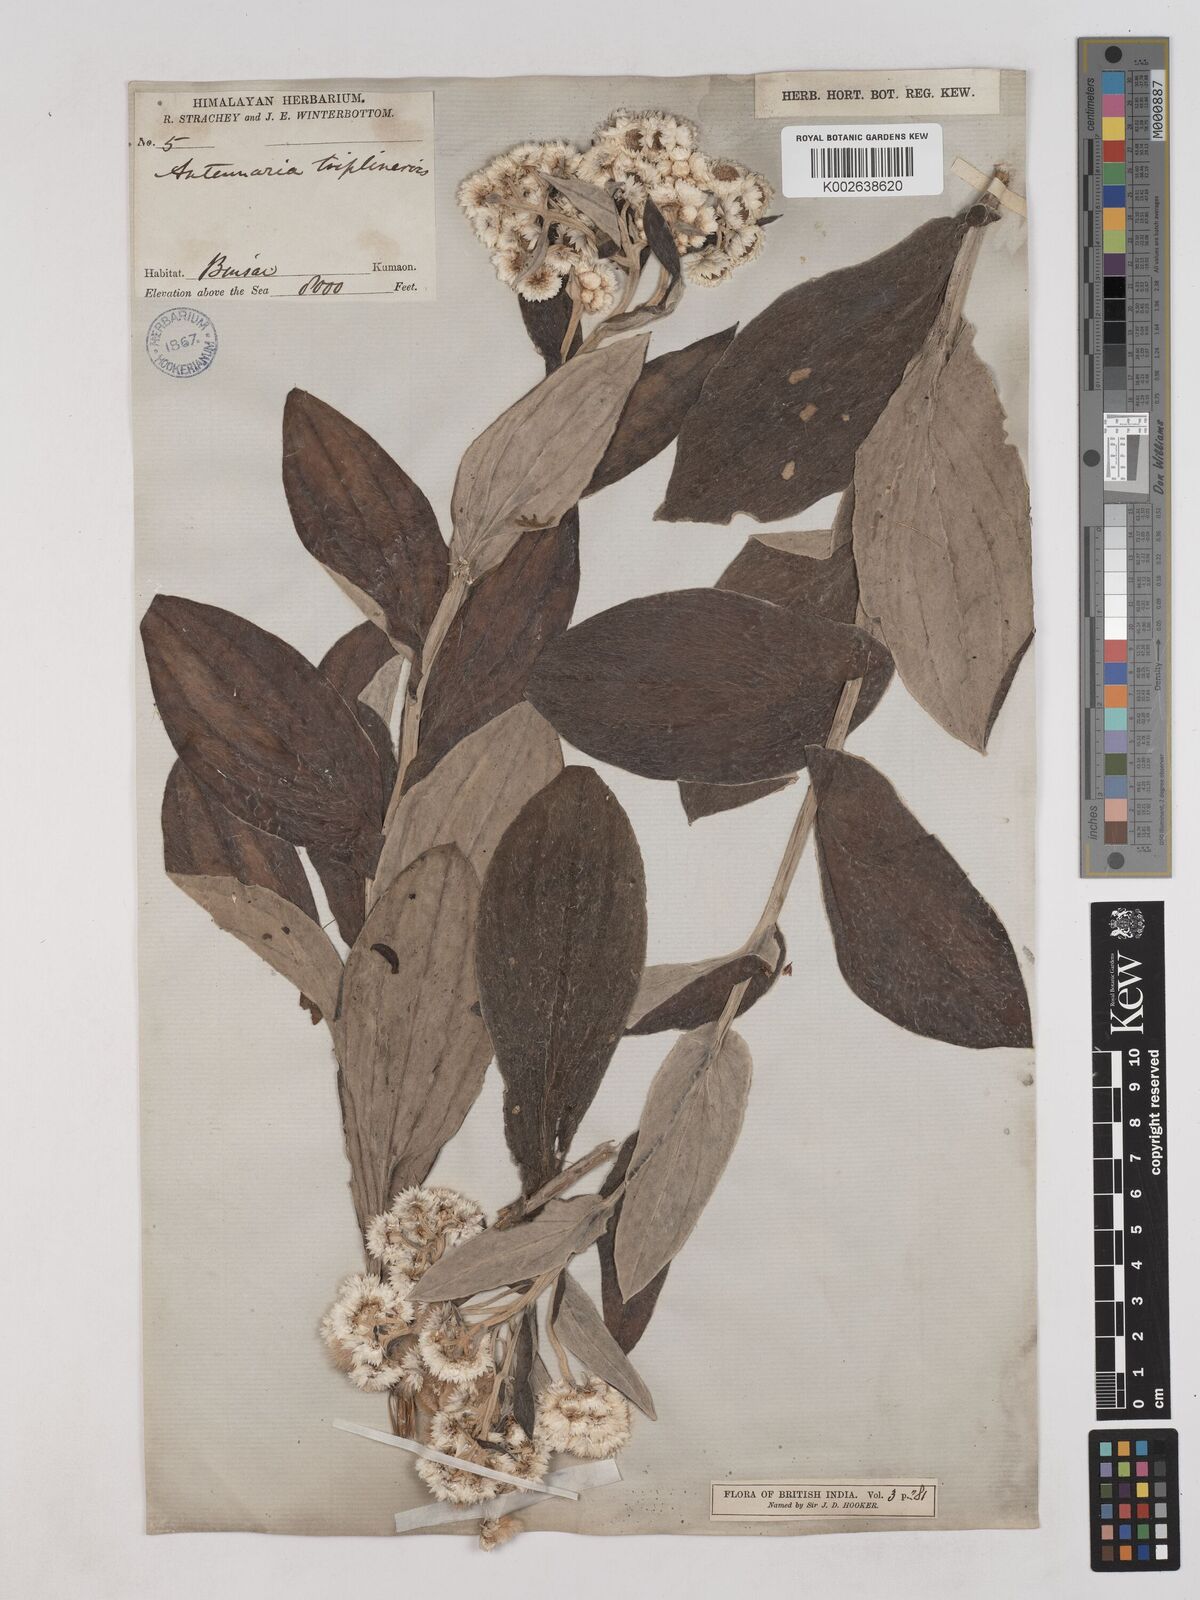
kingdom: Plantae
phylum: Tracheophyta
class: Magnoliopsida
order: Asterales
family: Asteraceae
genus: Anaphalis
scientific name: Anaphalis triplinervis
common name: Pearly everlasting
